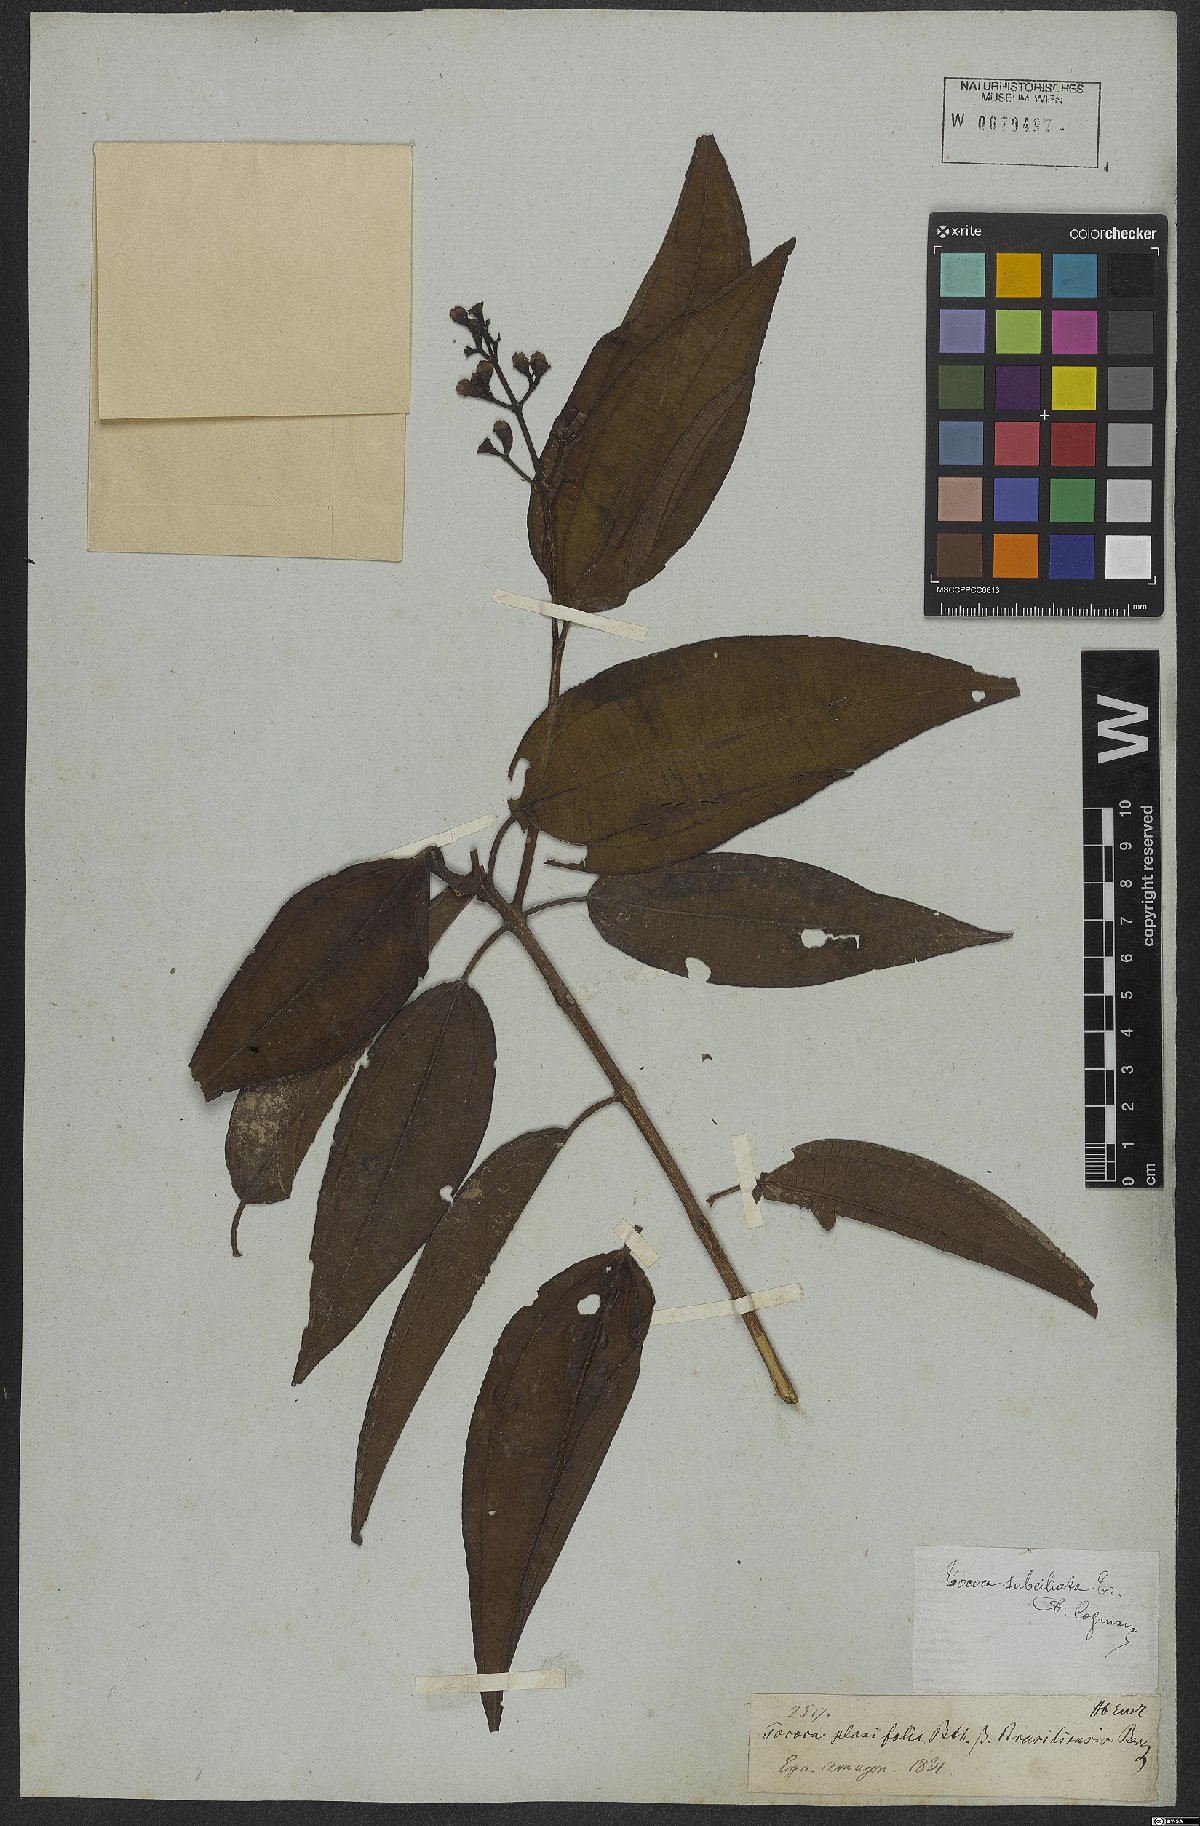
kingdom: Plantae
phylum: Tracheophyta
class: Magnoliopsida
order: Myrtales
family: Melastomataceae
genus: Miconia
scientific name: Miconia subciliata
